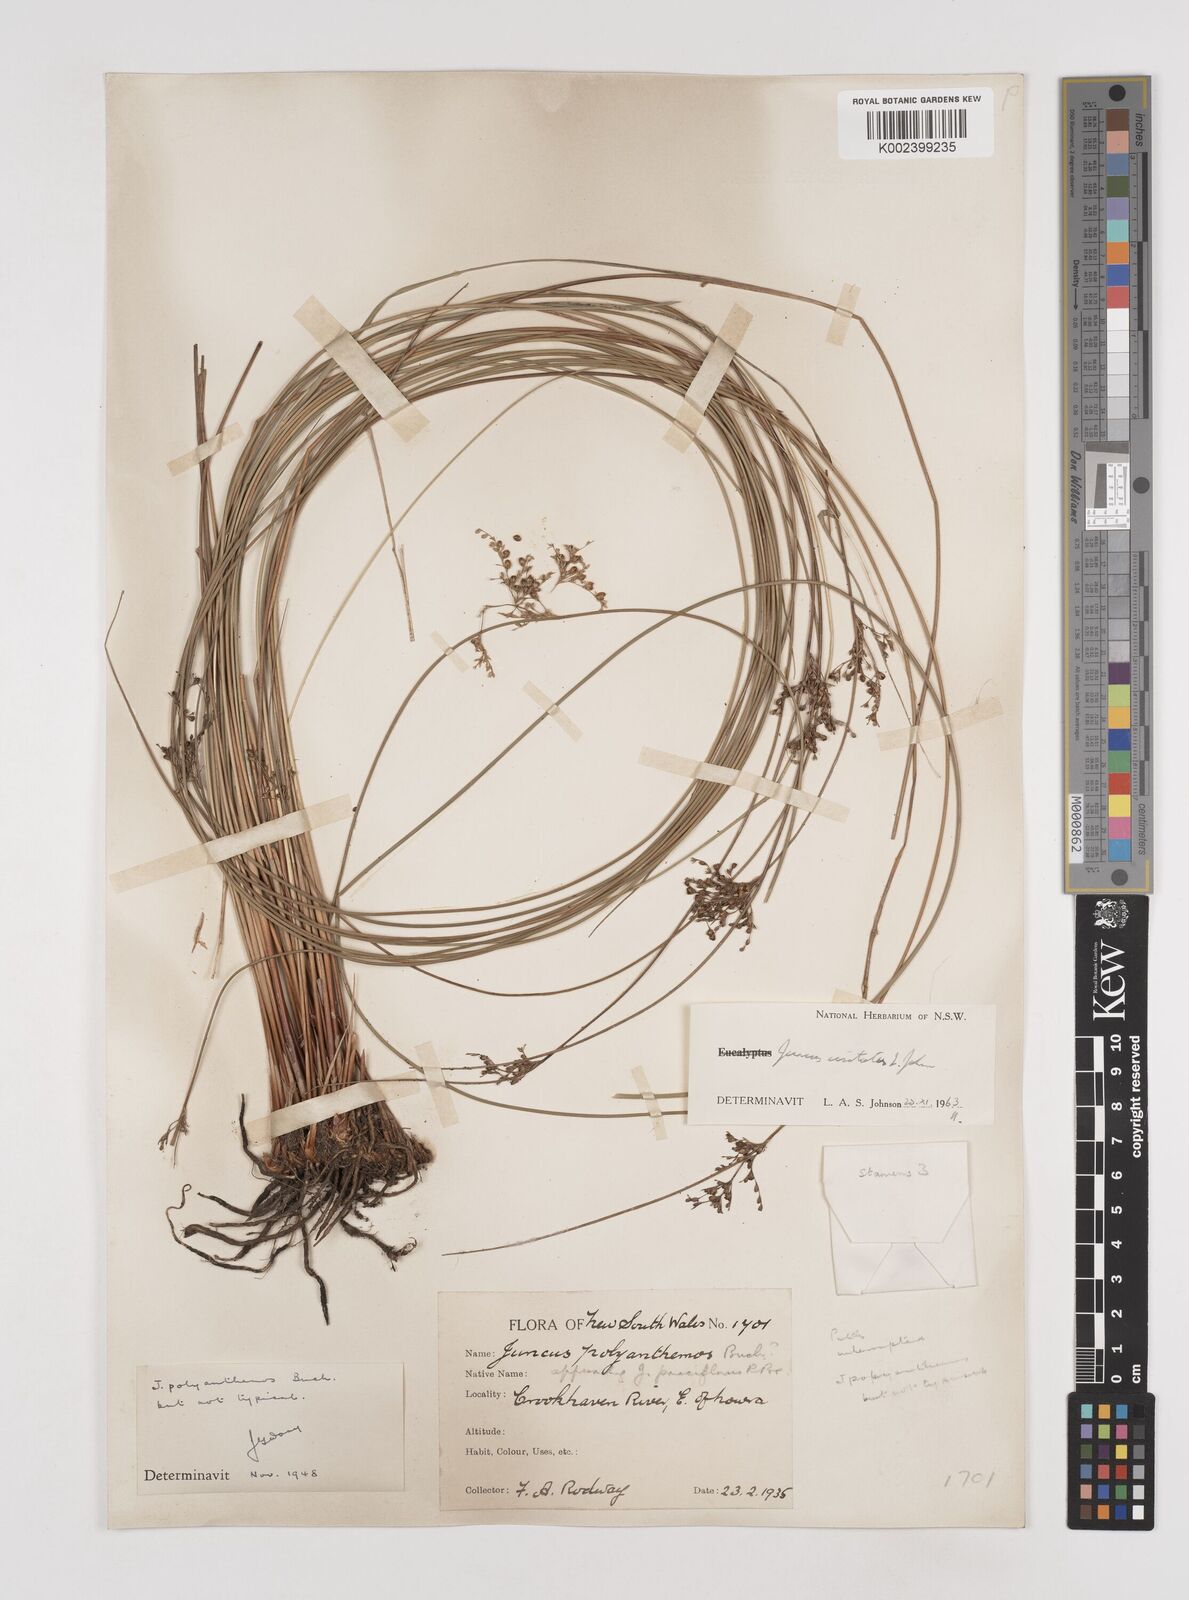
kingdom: Plantae
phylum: Tracheophyta
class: Liliopsida
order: Poales
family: Juncaceae
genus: Juncus
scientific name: Juncus usitatus
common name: Rush
